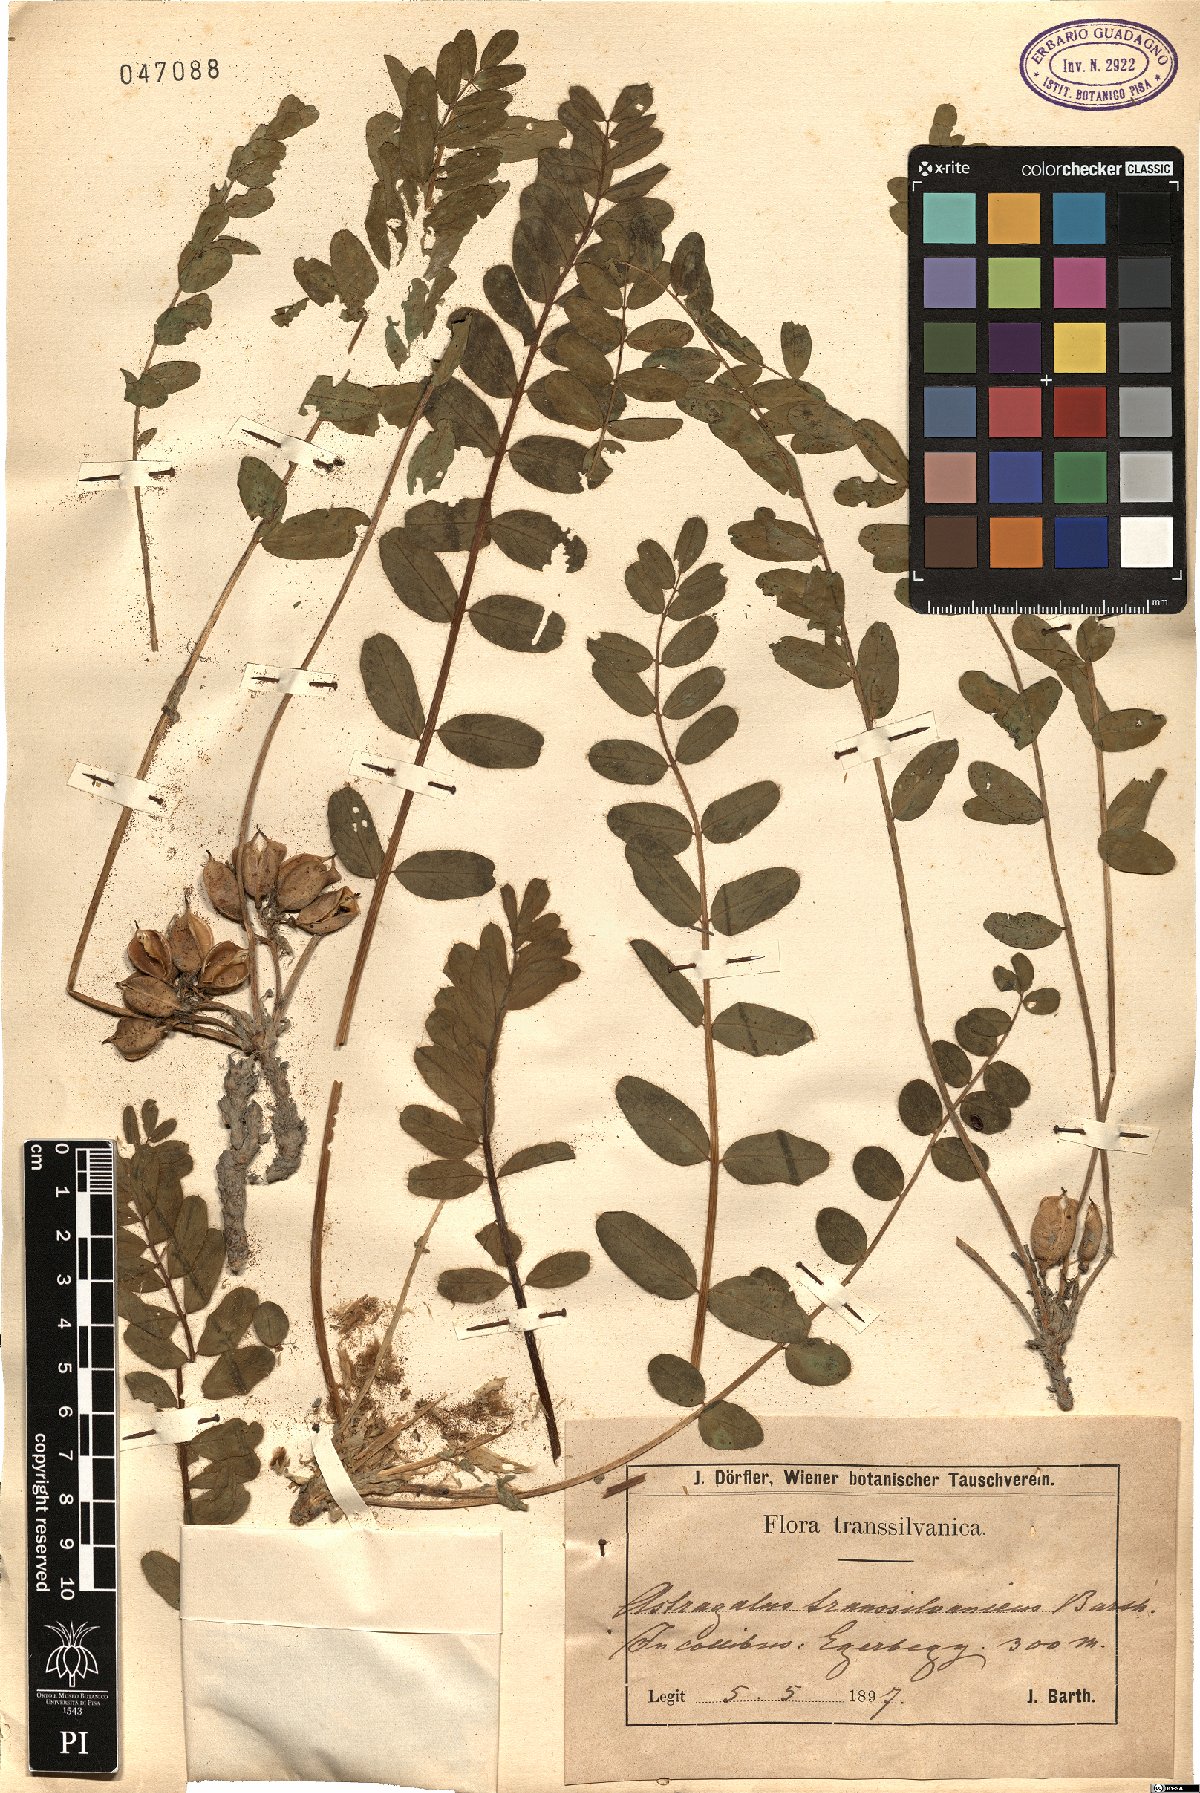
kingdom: Plantae
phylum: Tracheophyta
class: Magnoliopsida
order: Fabales
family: Fabaceae
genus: Astragalus
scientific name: Astragalus exscapus
